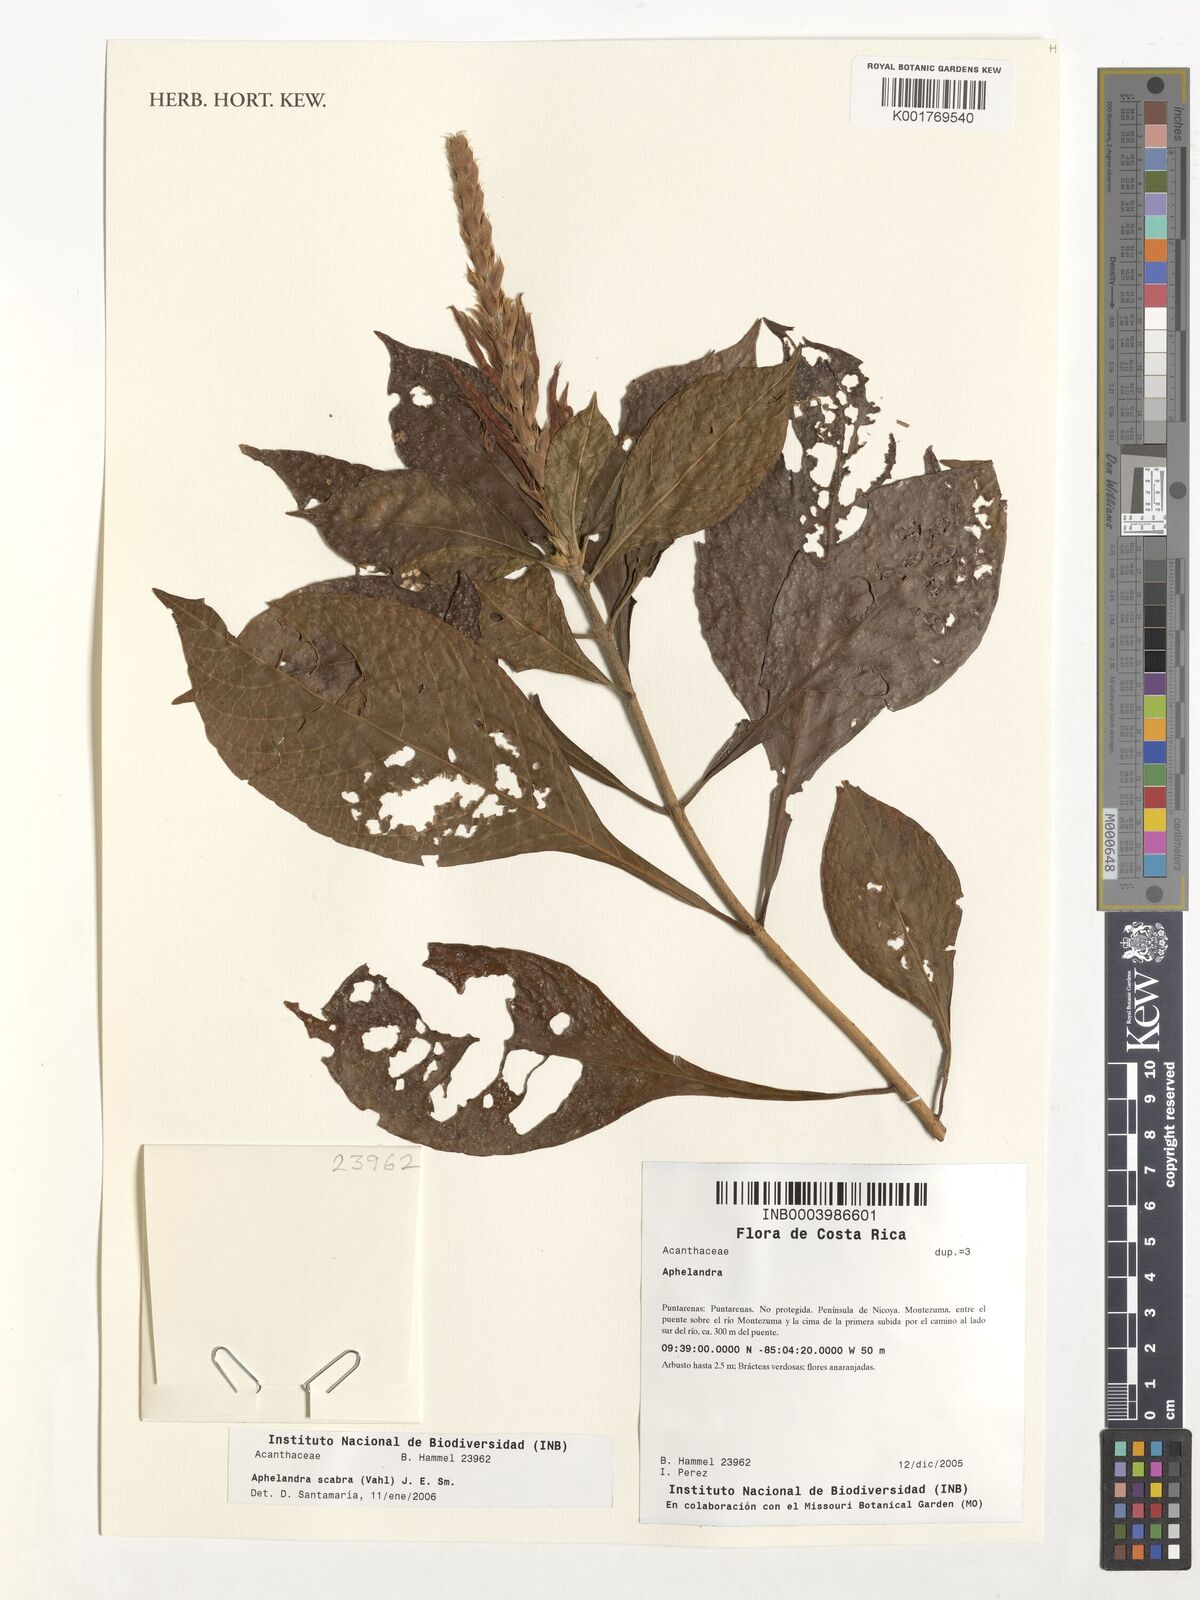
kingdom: Plantae
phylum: Tracheophyta
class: Magnoliopsida
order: Lamiales
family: Acanthaceae
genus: Aphelandra
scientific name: Aphelandra
